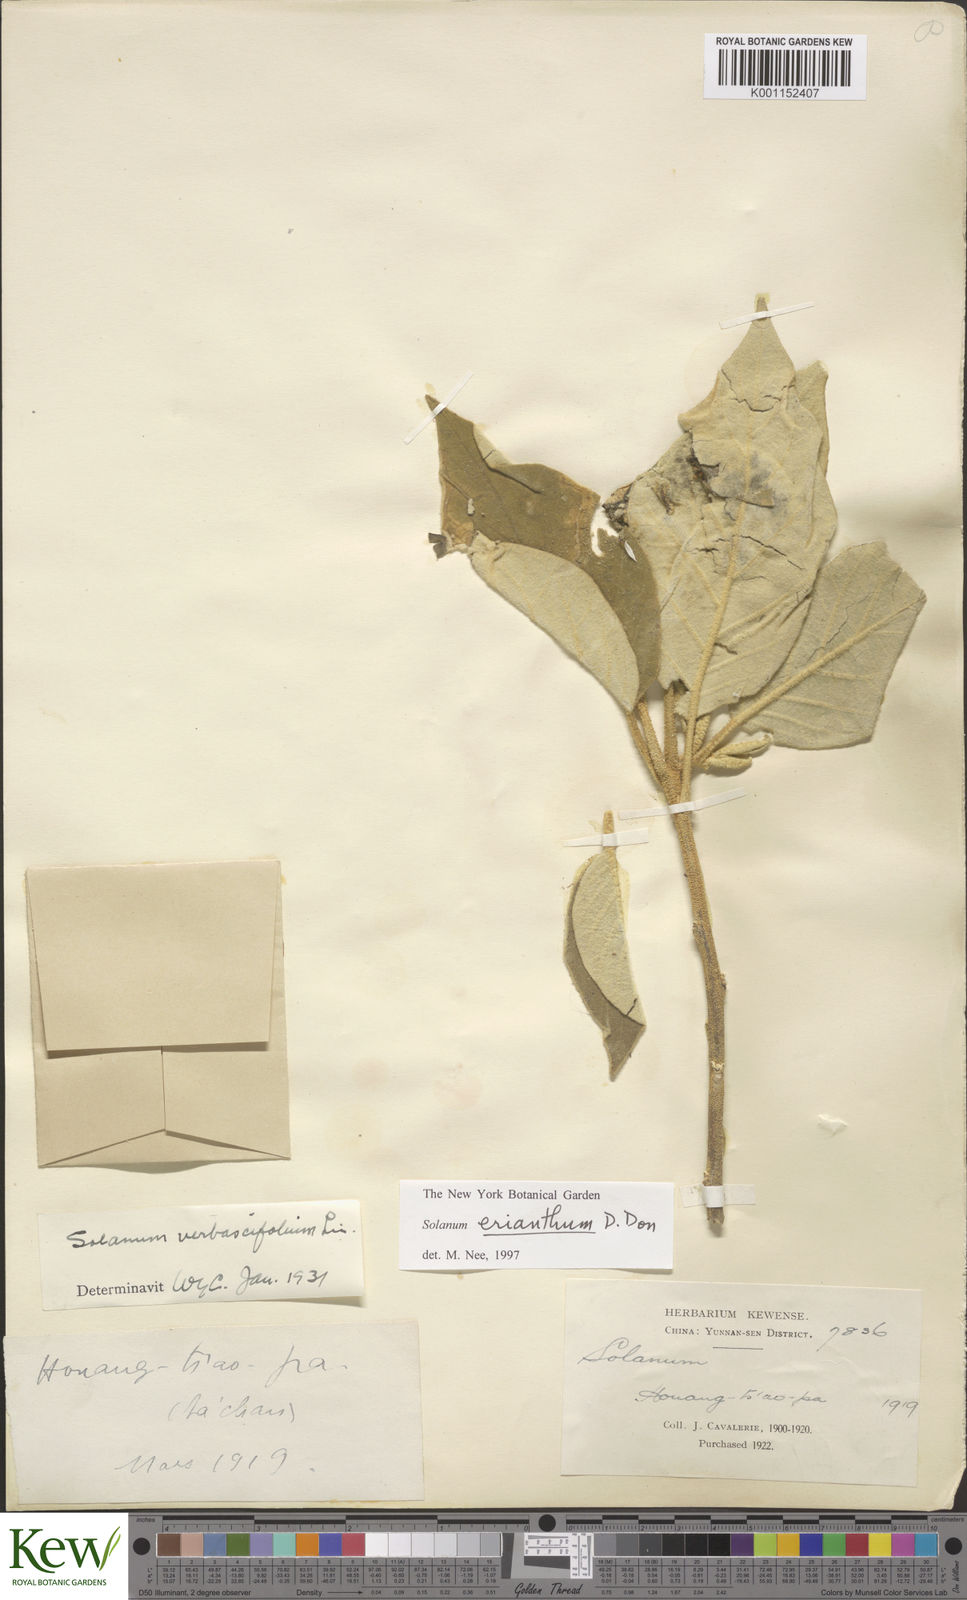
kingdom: Plantae
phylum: Tracheophyta
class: Magnoliopsida
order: Solanales
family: Solanaceae
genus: Solanum
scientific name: Solanum donianum
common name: Mullein nightshade
